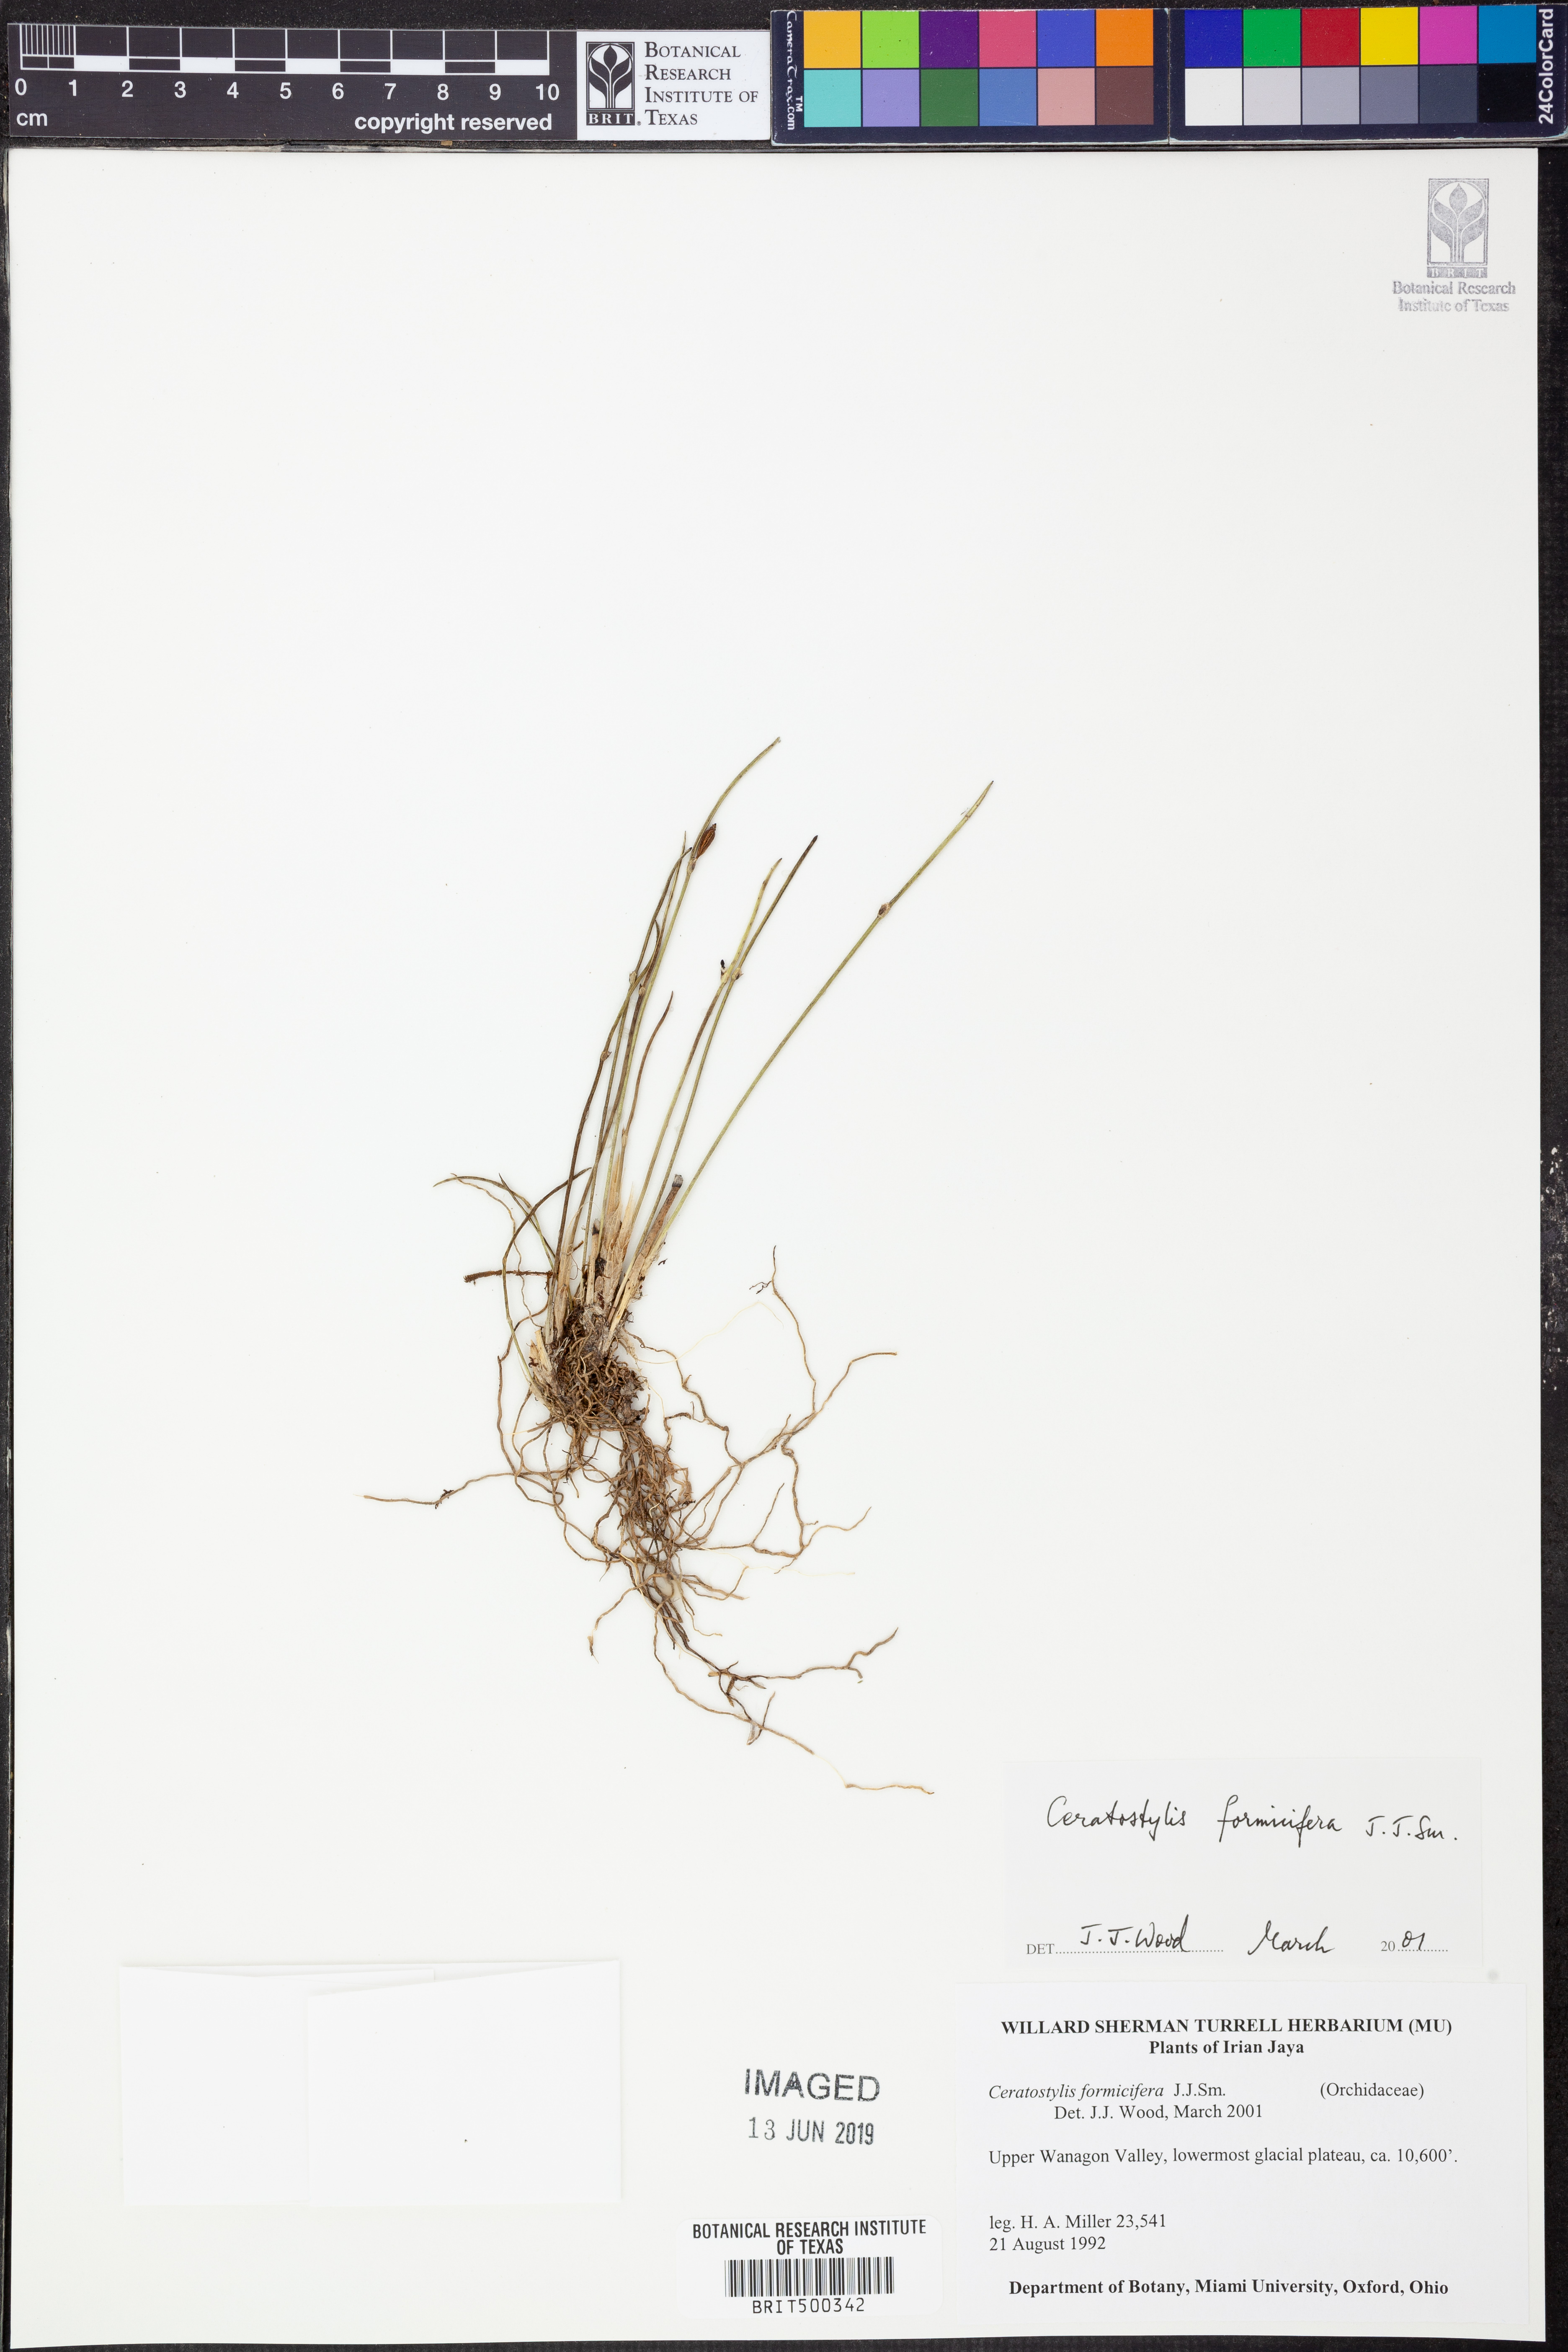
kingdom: Plantae
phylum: Tracheophyta
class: Liliopsida
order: Asparagales
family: Orchidaceae
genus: Ceratostylis
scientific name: Ceratostylis formicifera
